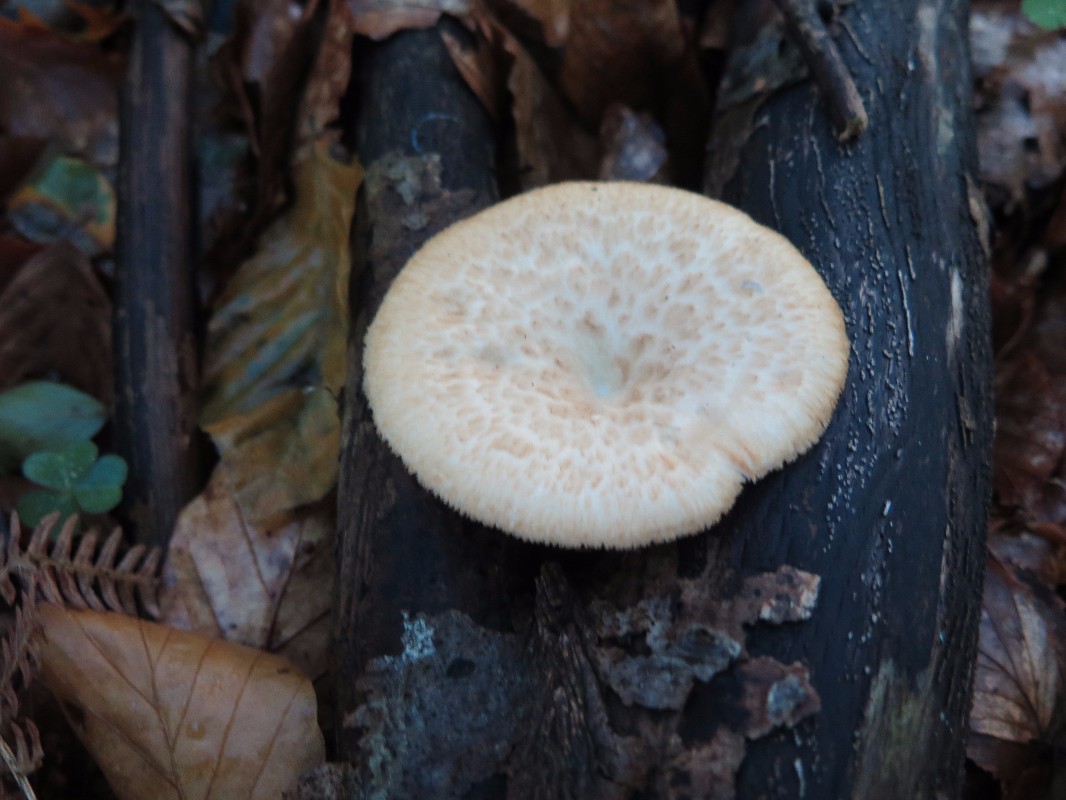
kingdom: Fungi
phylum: Basidiomycota
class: Agaricomycetes
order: Polyporales
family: Polyporaceae
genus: Polyporus
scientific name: Polyporus tuberaster
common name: knoldet stilkporesvamp
